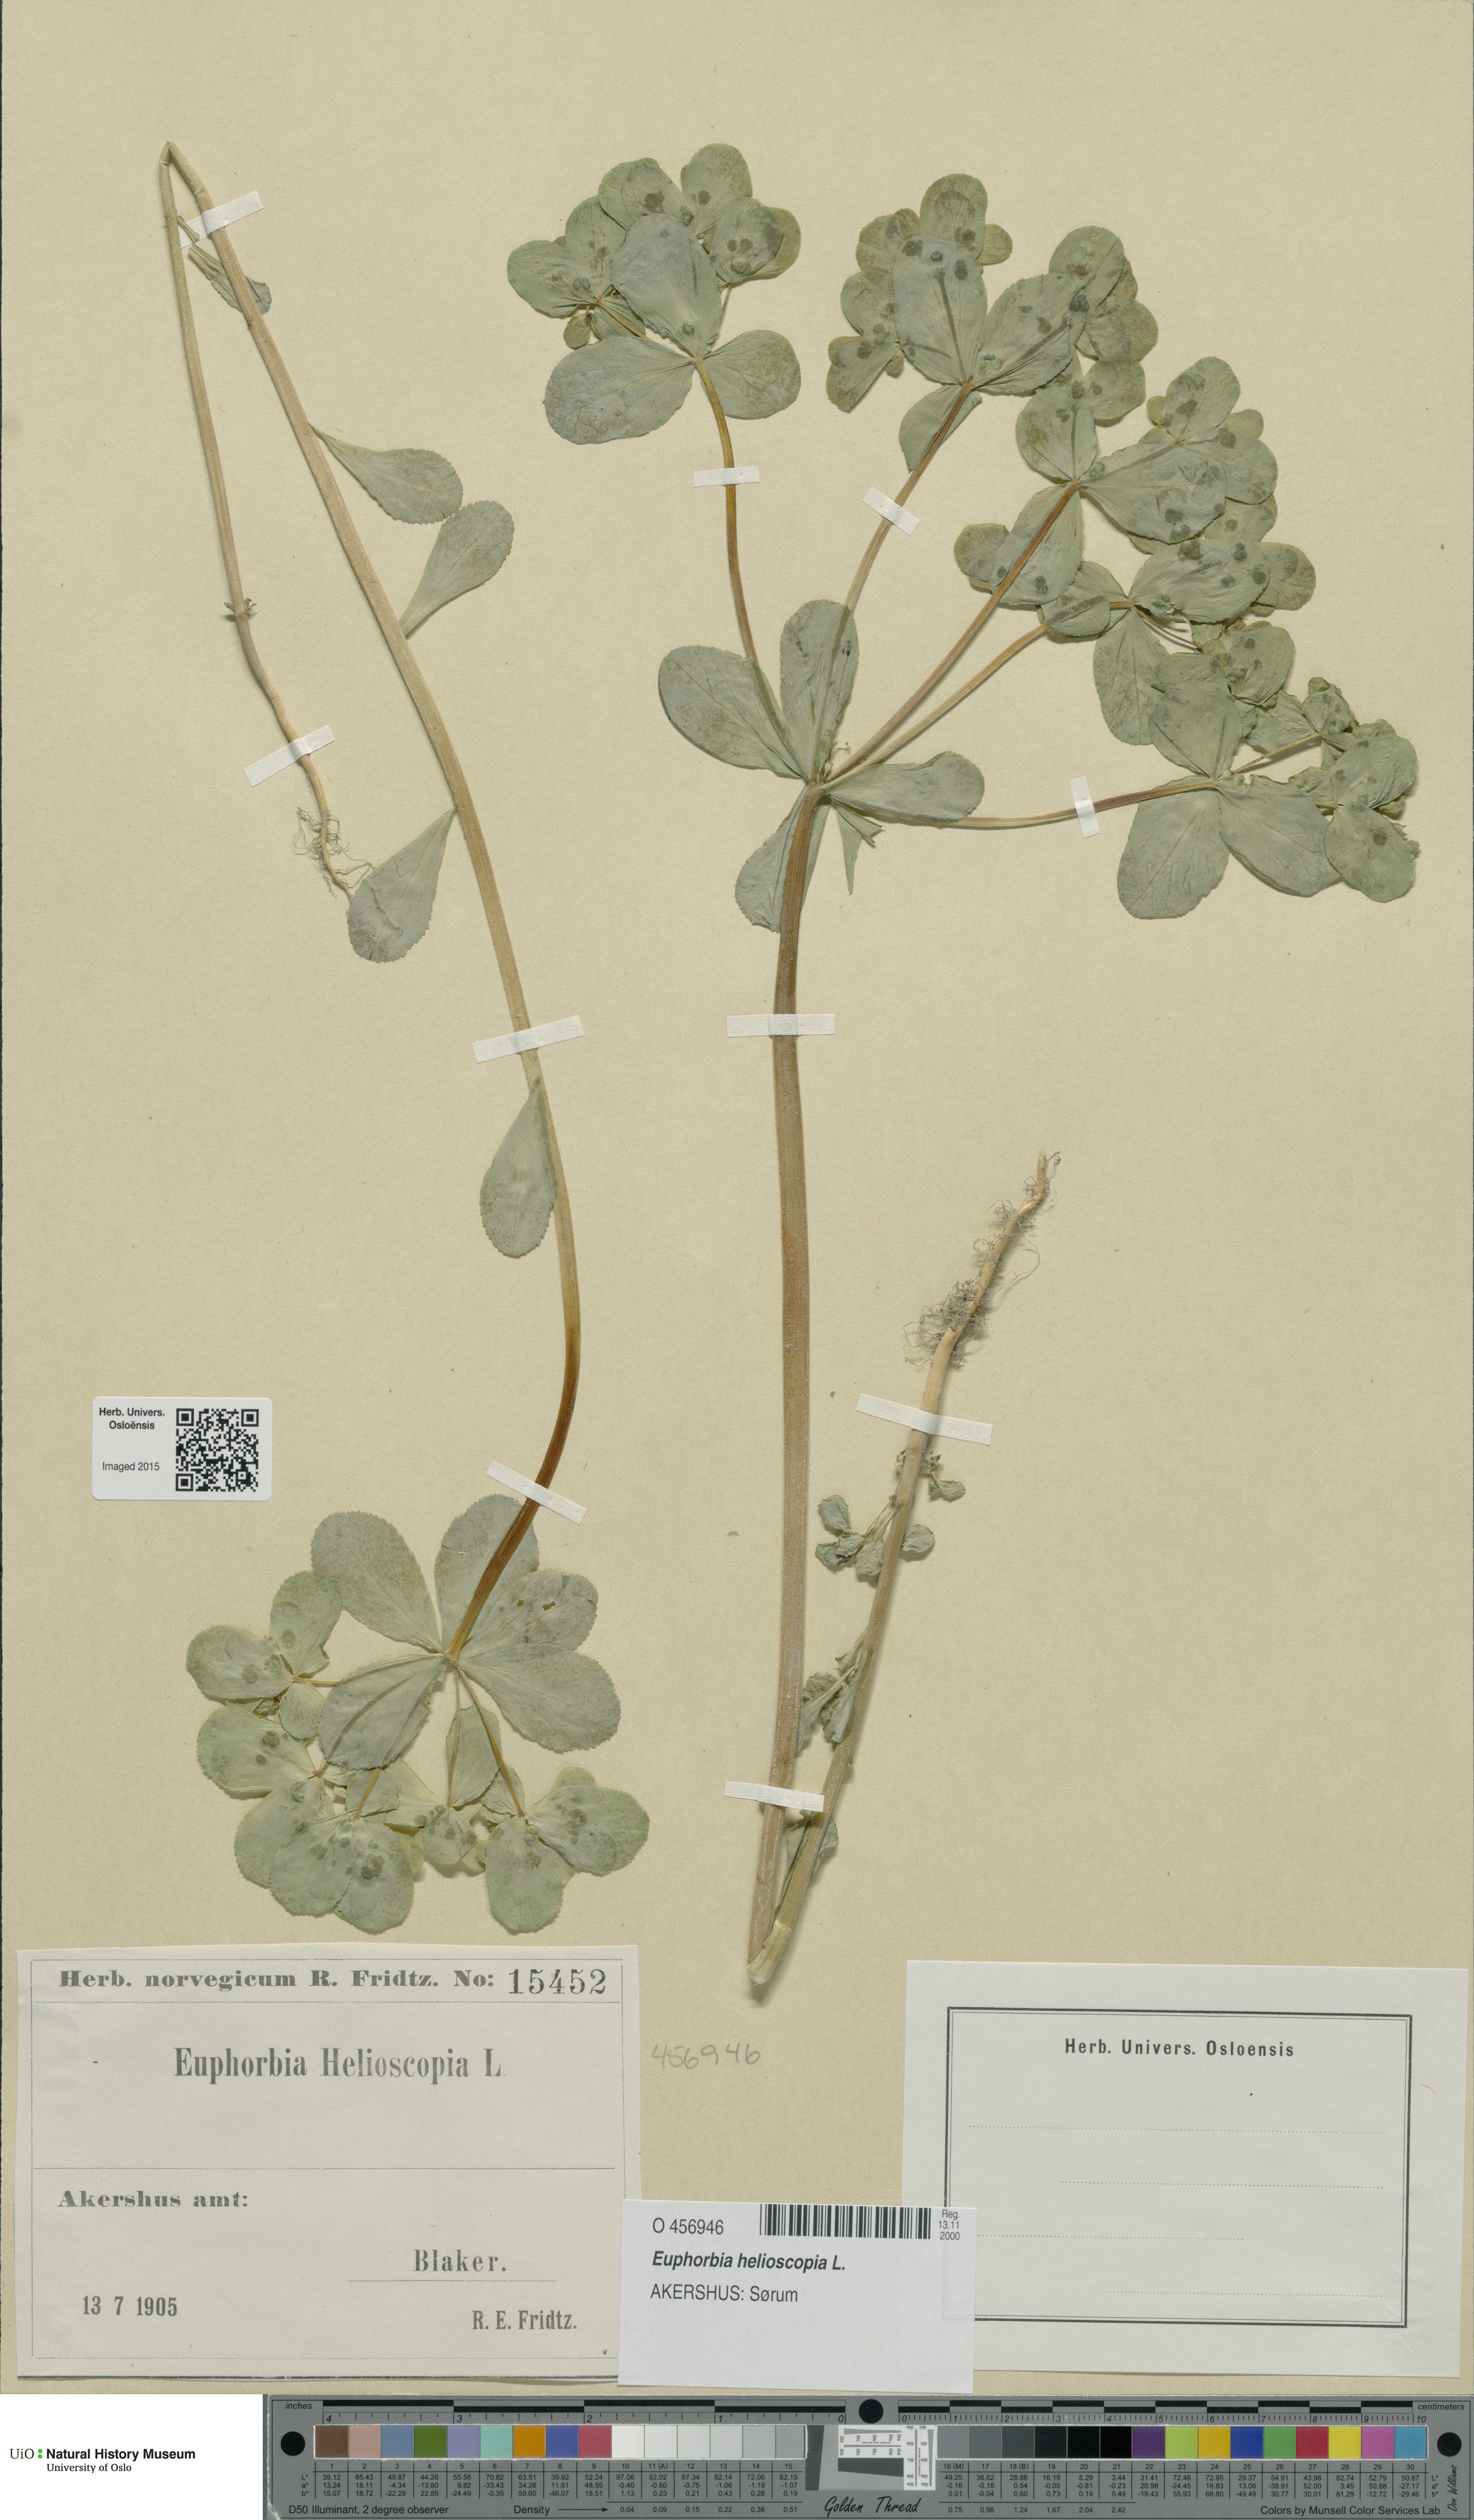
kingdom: Plantae
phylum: Tracheophyta
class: Magnoliopsida
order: Malpighiales
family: Euphorbiaceae
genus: Euphorbia
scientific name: Euphorbia helioscopia
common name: Sun spurge
